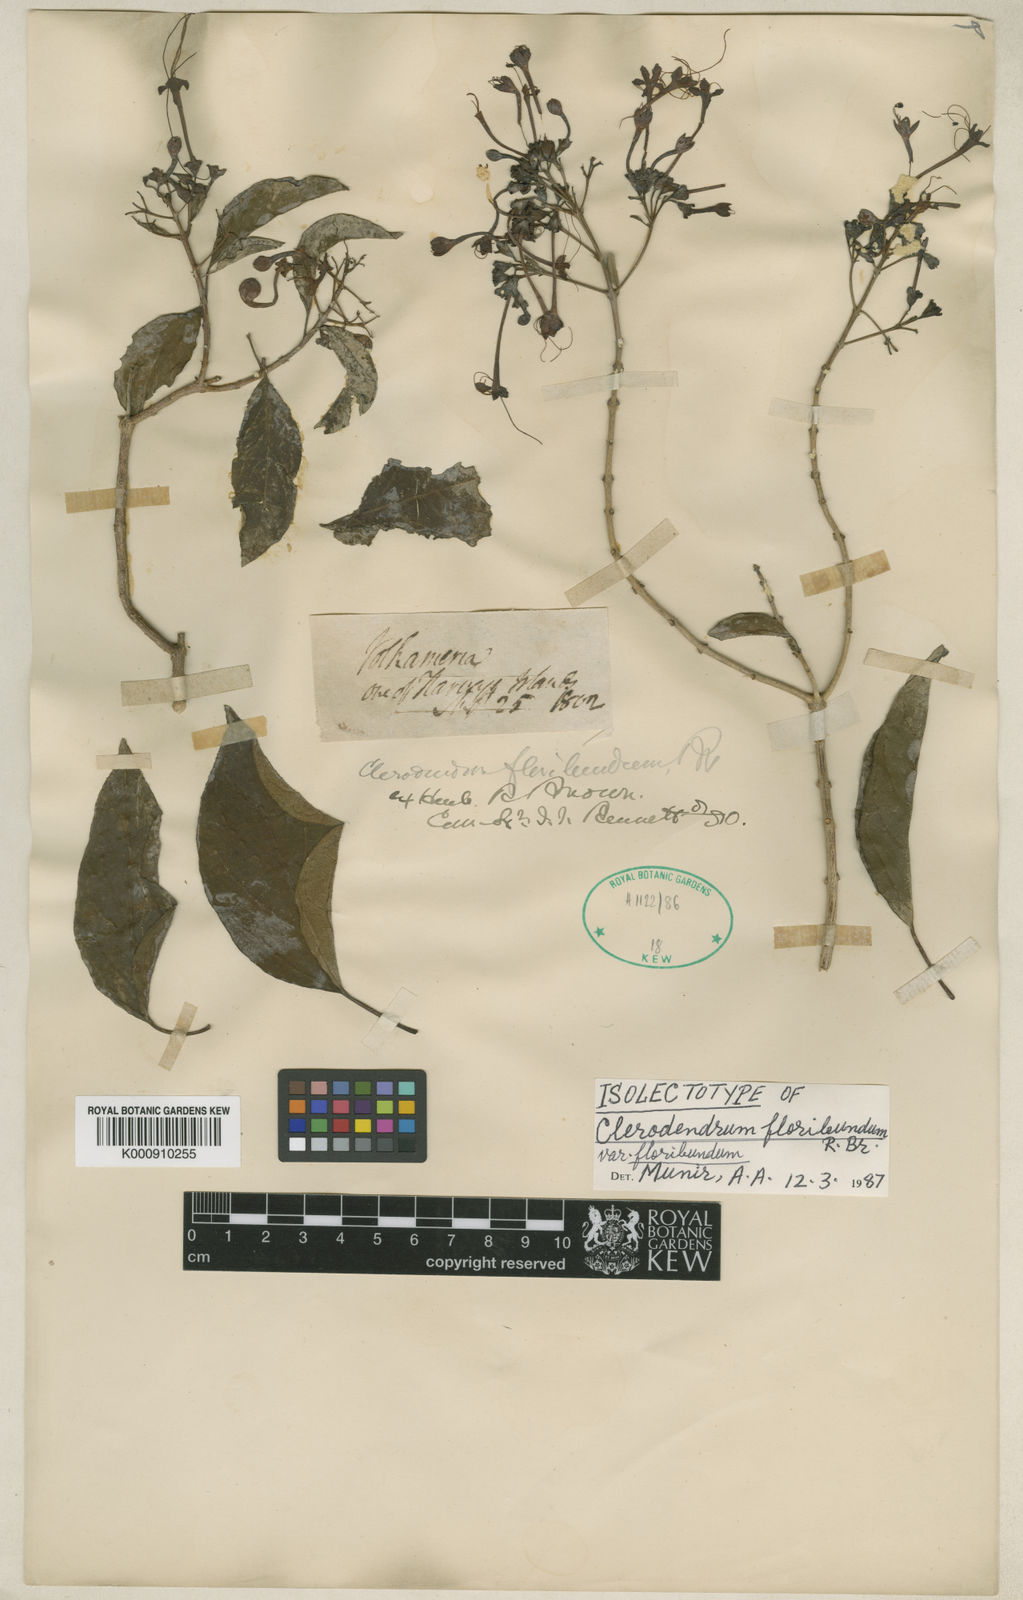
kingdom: Plantae
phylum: Tracheophyta
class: Magnoliopsida
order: Lamiales
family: Lamiaceae
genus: Clerodendrum
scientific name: Clerodendrum floribundum
